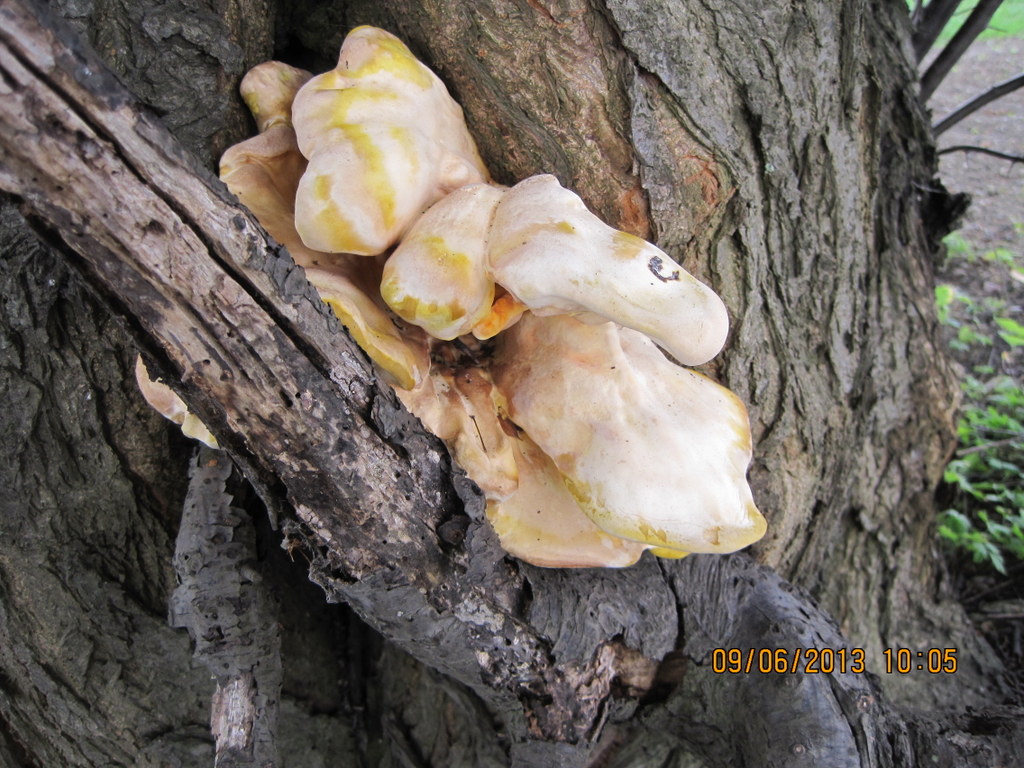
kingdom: Fungi
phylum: Basidiomycota
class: Agaricomycetes
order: Polyporales
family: Laetiporaceae
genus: Laetiporus
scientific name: Laetiporus sulphureus
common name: svovlporesvamp
